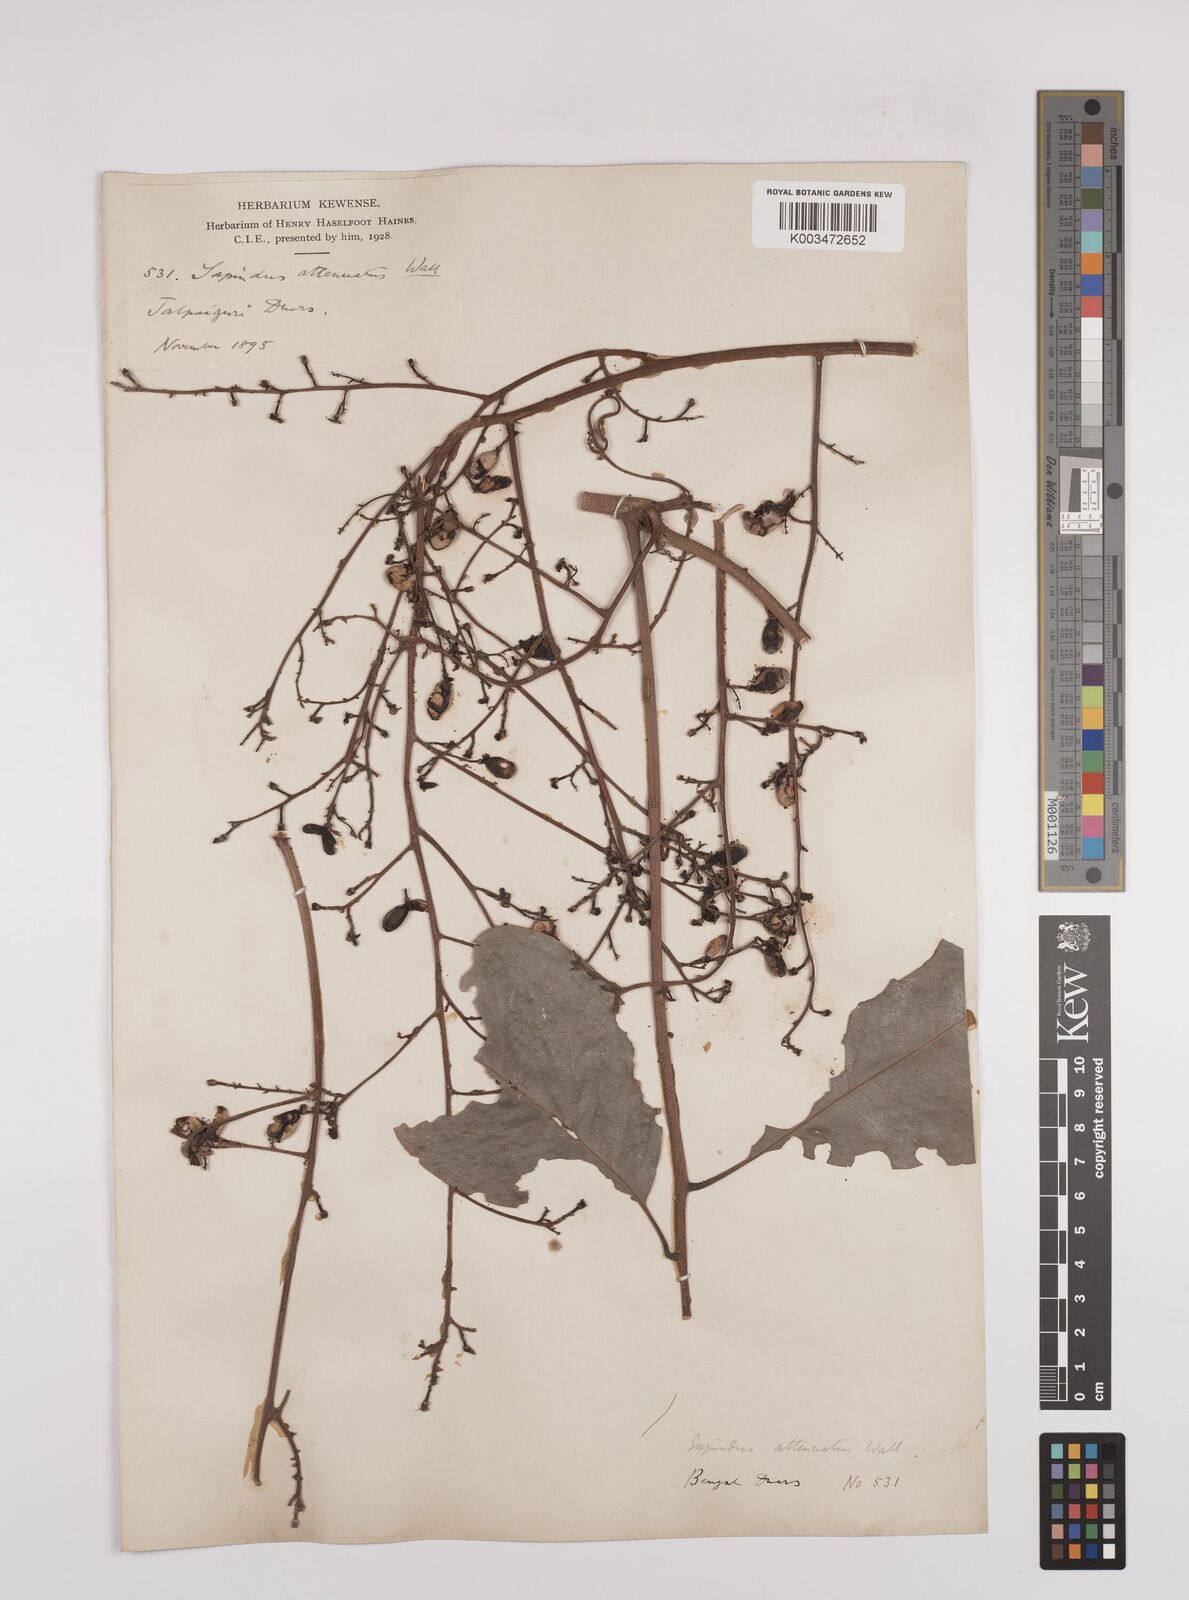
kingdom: Plantae
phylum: Tracheophyta
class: Magnoliopsida
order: Sapindales
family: Sapindaceae
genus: Lepisanthes
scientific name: Lepisanthes senegalensis
